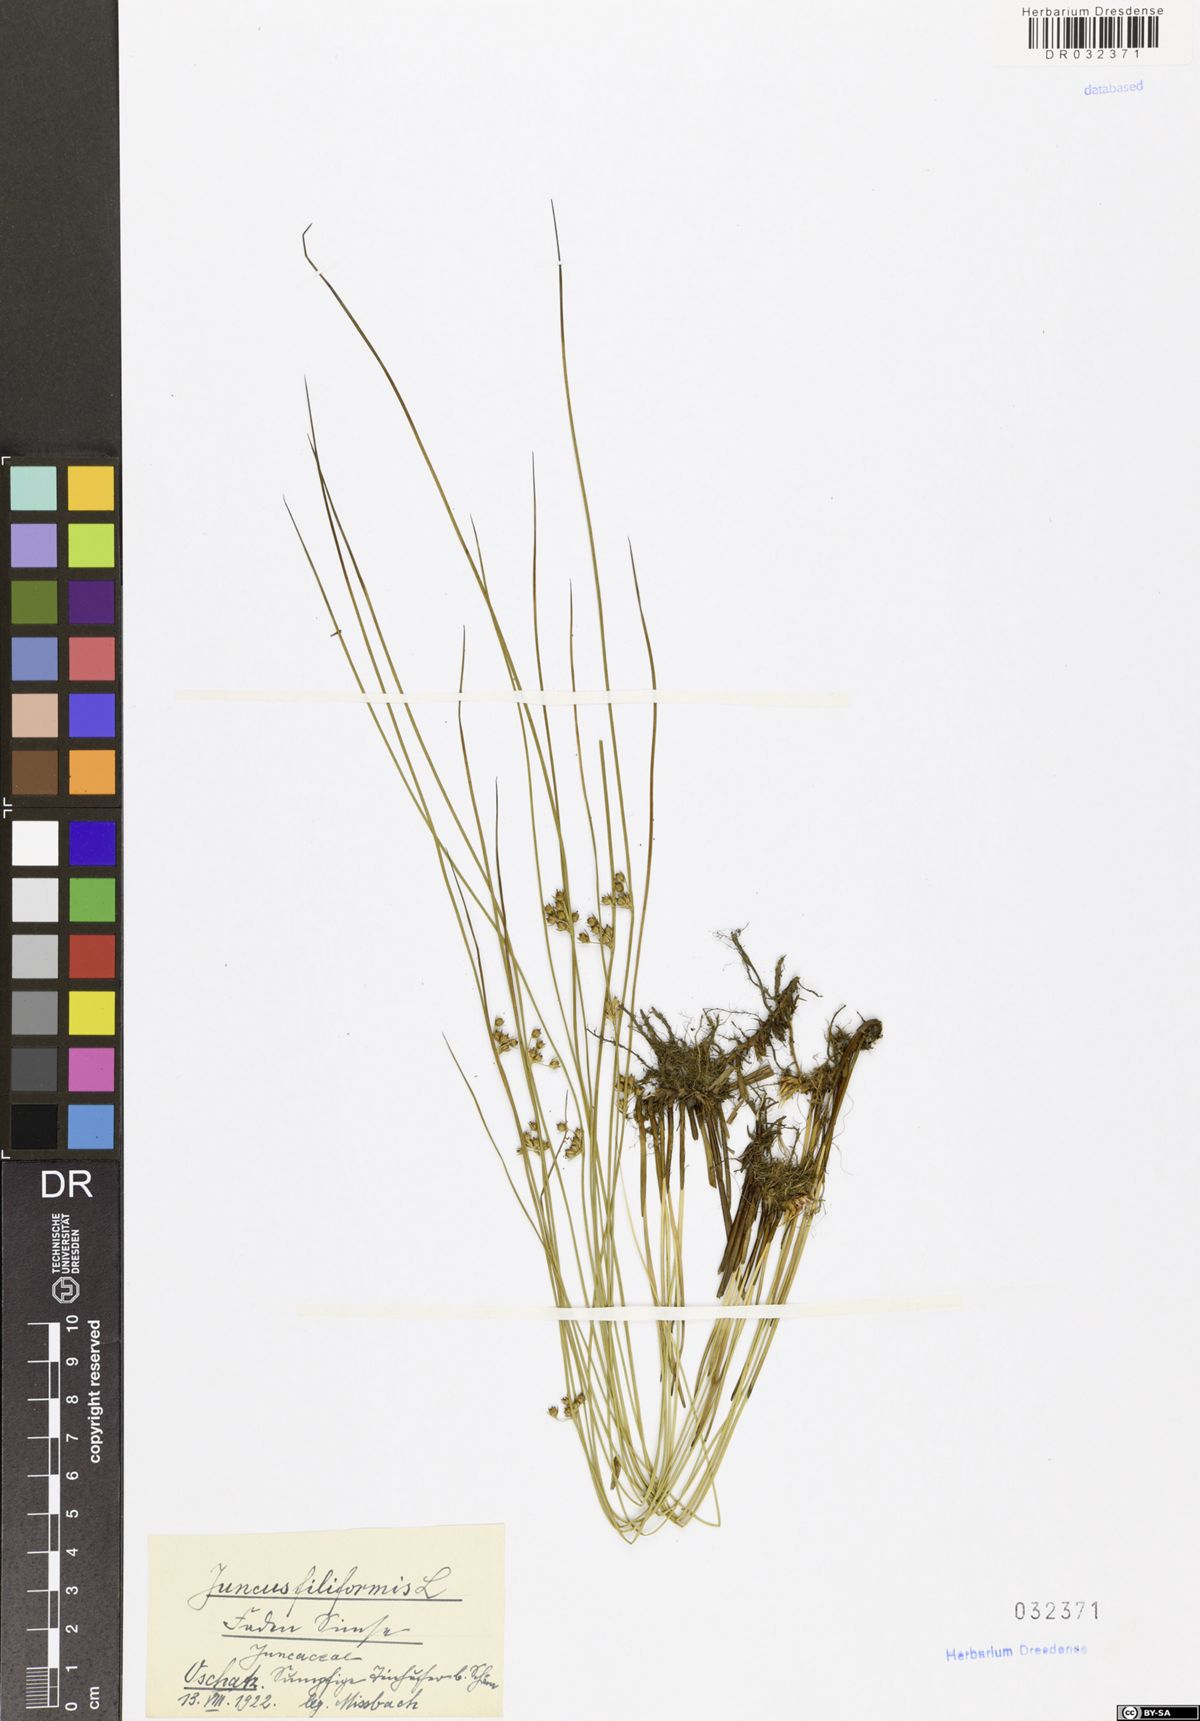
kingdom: Plantae
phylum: Tracheophyta
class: Liliopsida
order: Poales
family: Juncaceae
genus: Juncus
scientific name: Juncus inflexus
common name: Hard rush
